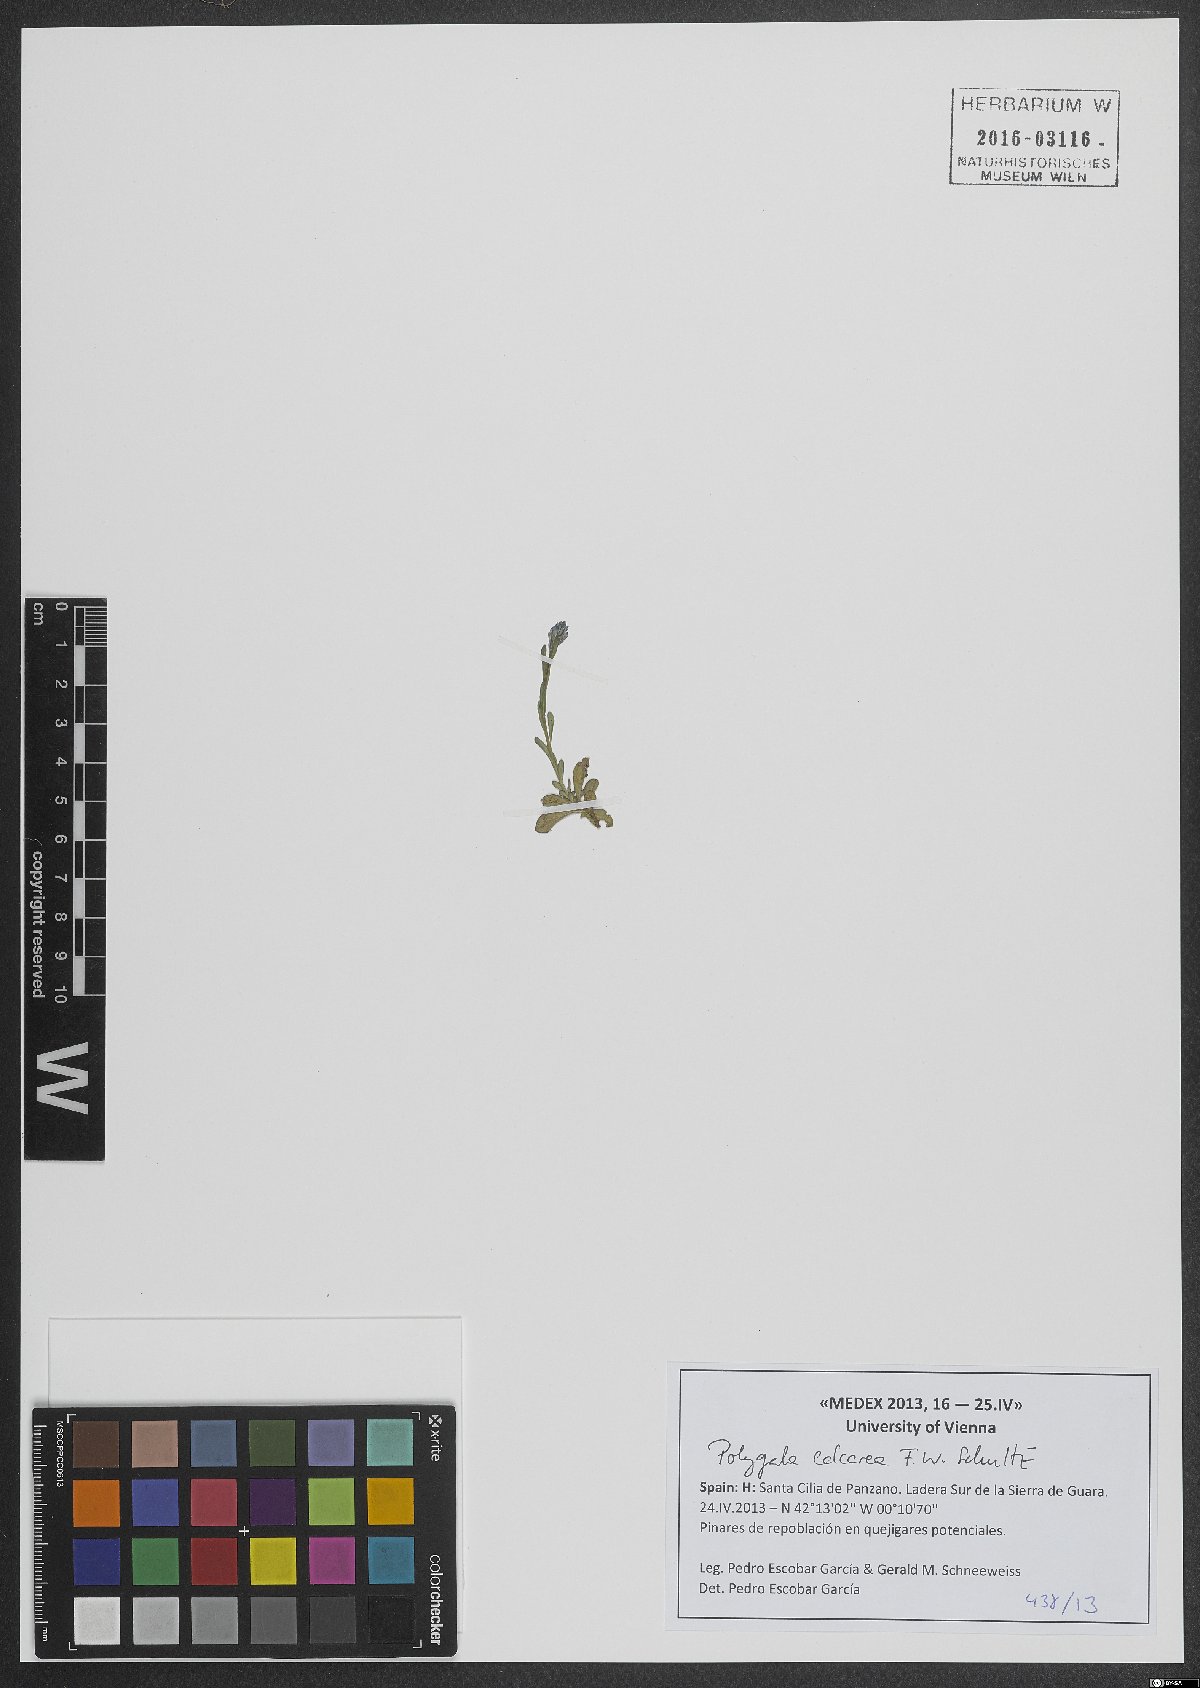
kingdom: Plantae
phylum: Tracheophyta
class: Magnoliopsida
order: Fabales
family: Polygalaceae
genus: Polygala
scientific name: Polygala calcarea
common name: Chalk milkwort
